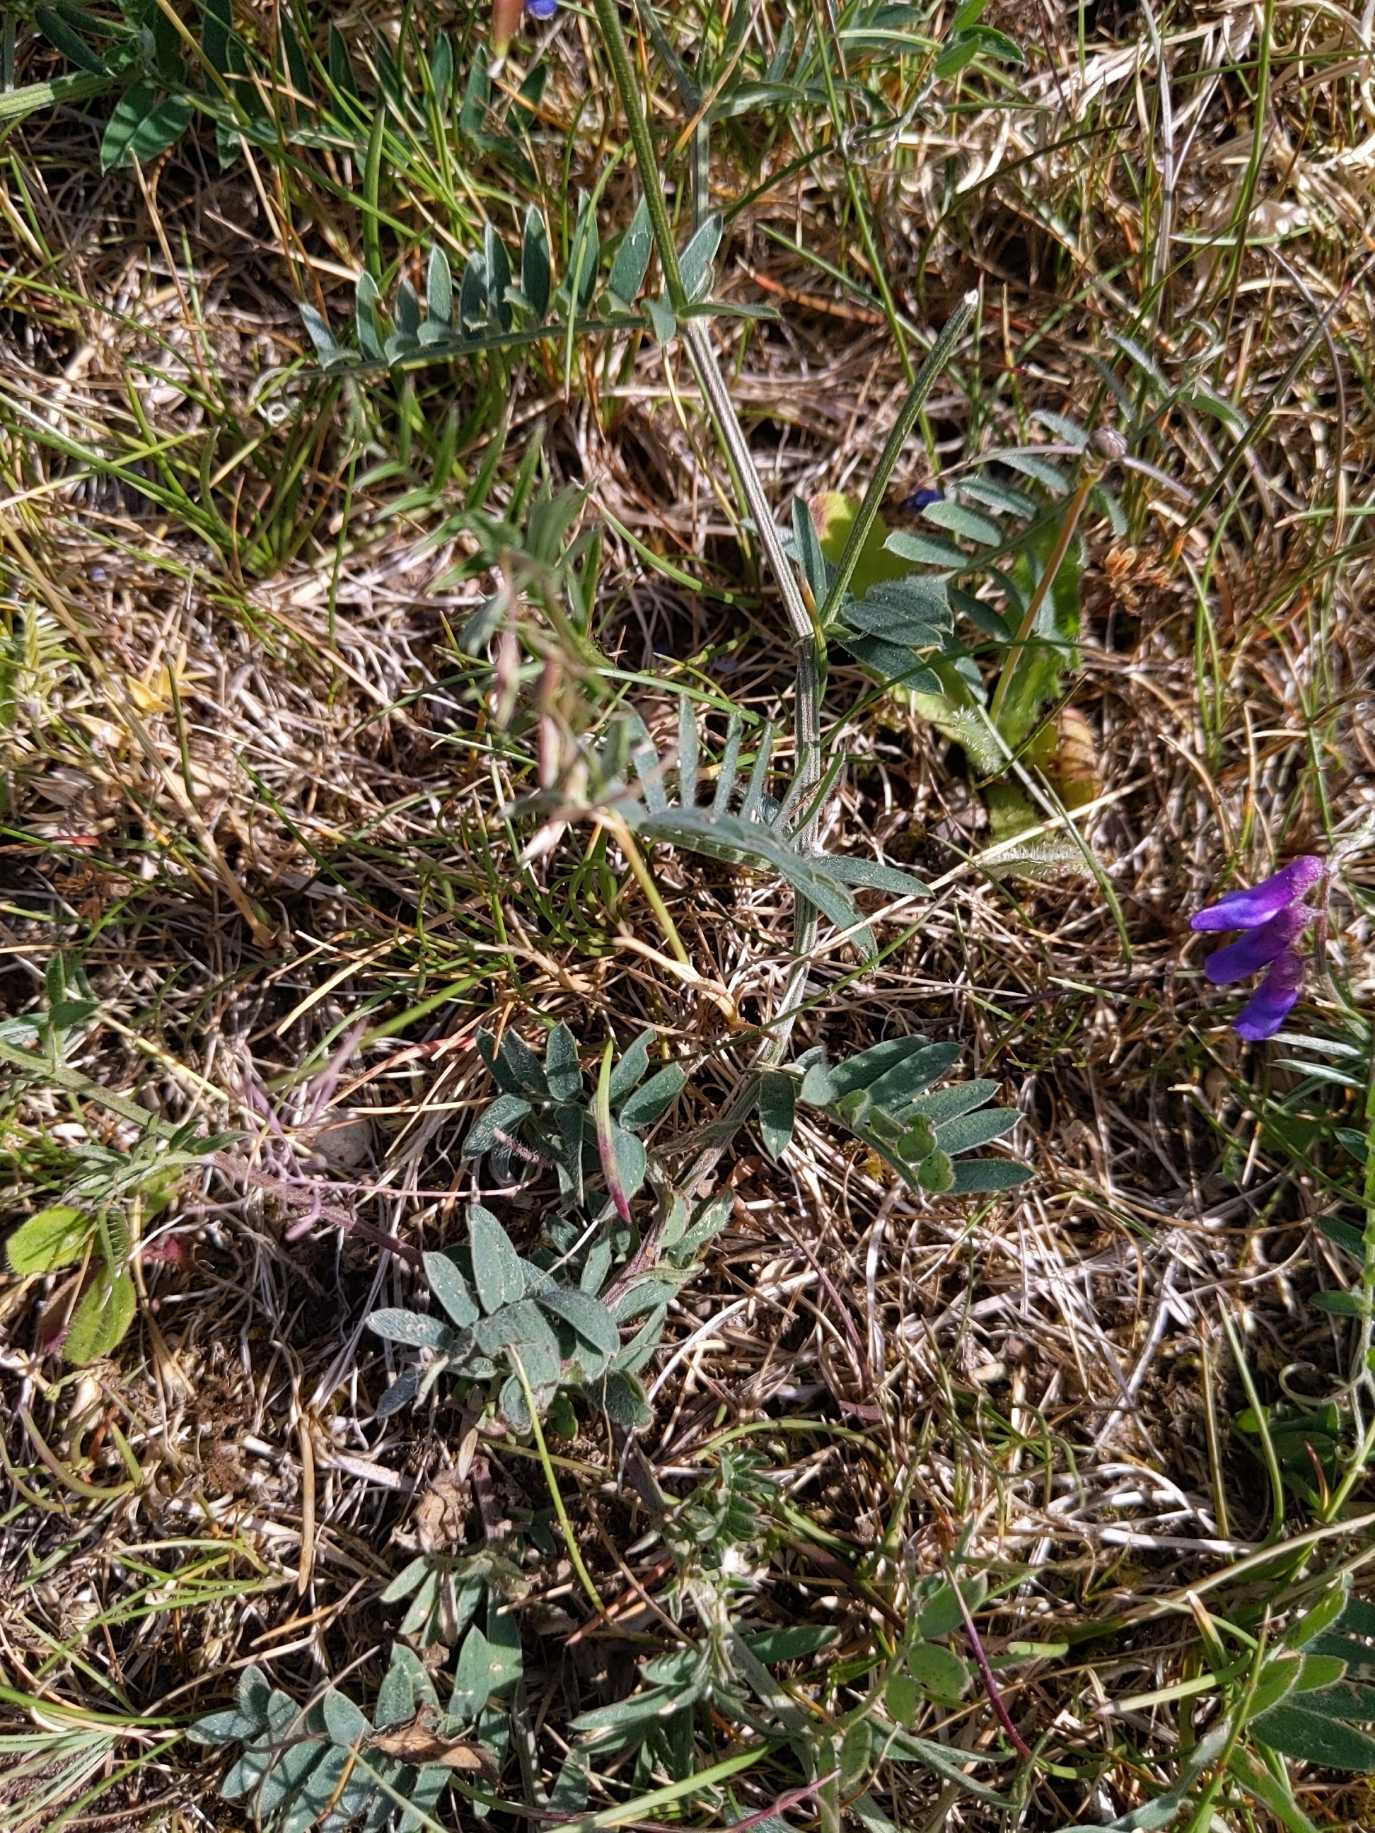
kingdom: Plantae
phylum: Tracheophyta
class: Magnoliopsida
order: Fabales
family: Fabaceae
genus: Vicia
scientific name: Vicia cracca
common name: Muse-vikke
